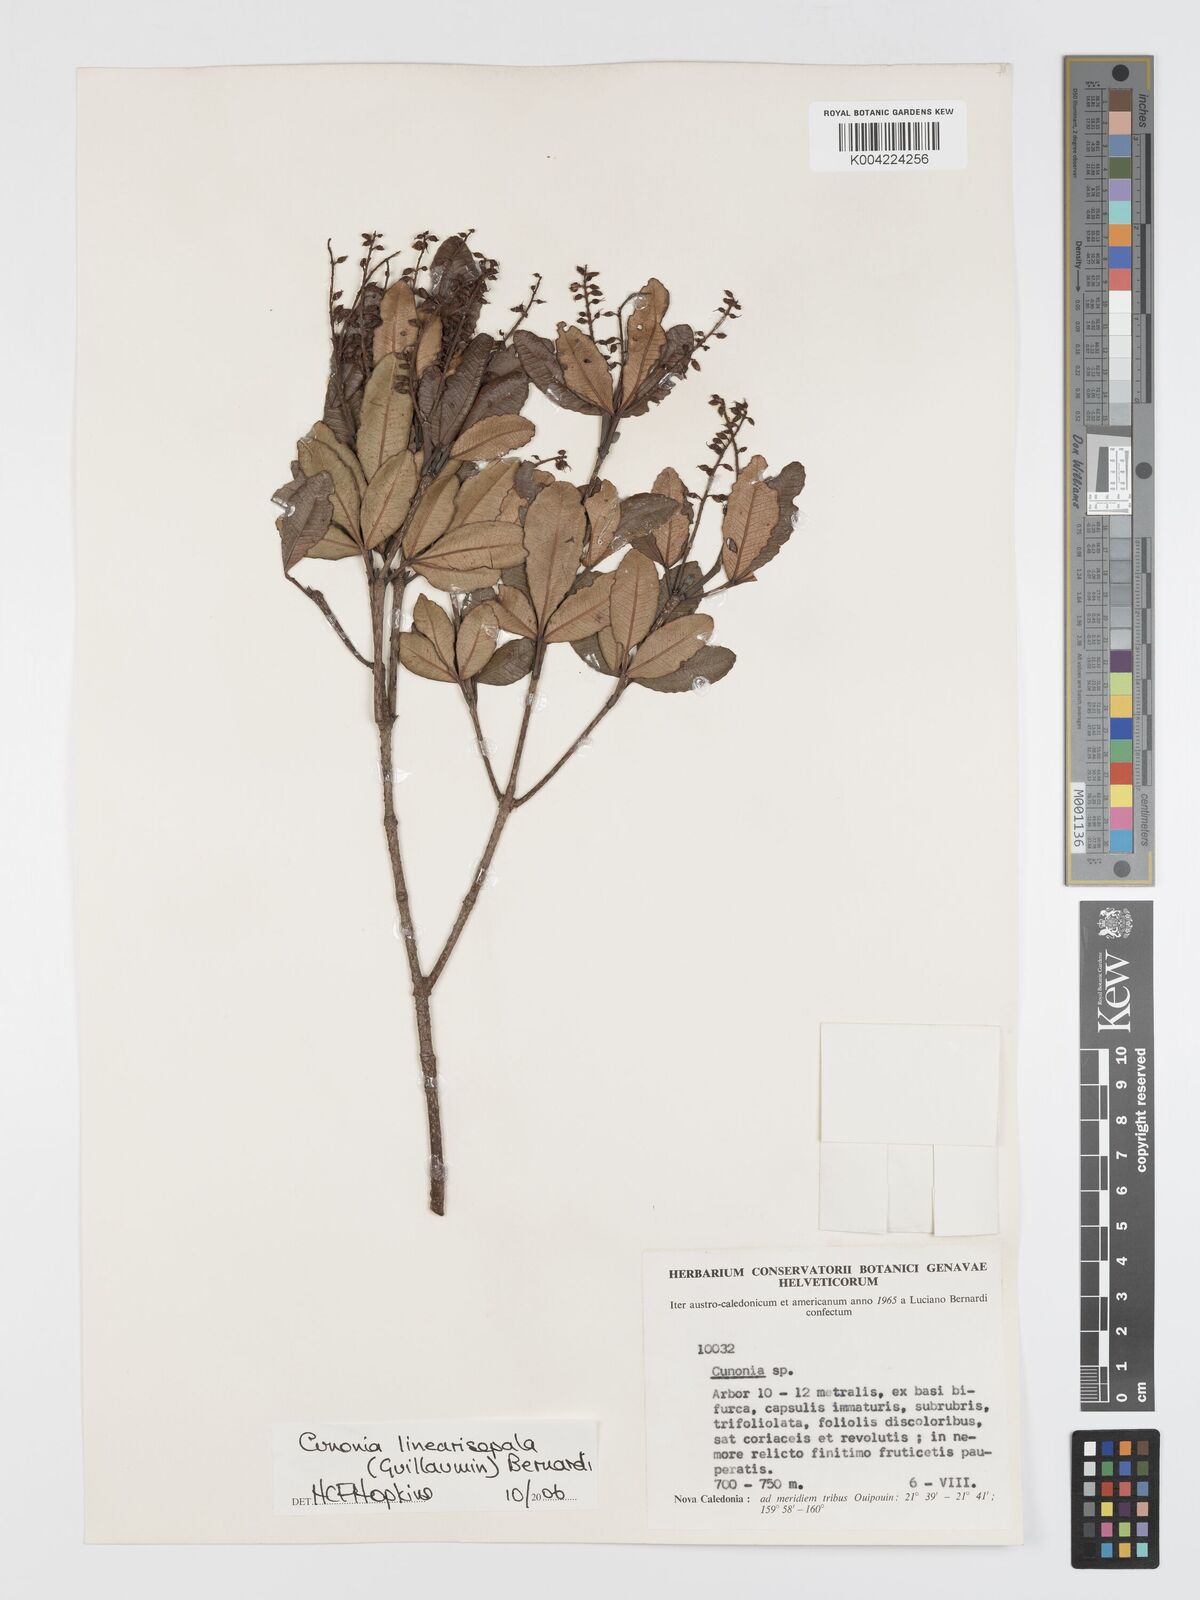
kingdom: Plantae
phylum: Tracheophyta
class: Magnoliopsida
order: Oxalidales
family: Cunoniaceae
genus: Cunonia
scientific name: Cunonia linearisepala
